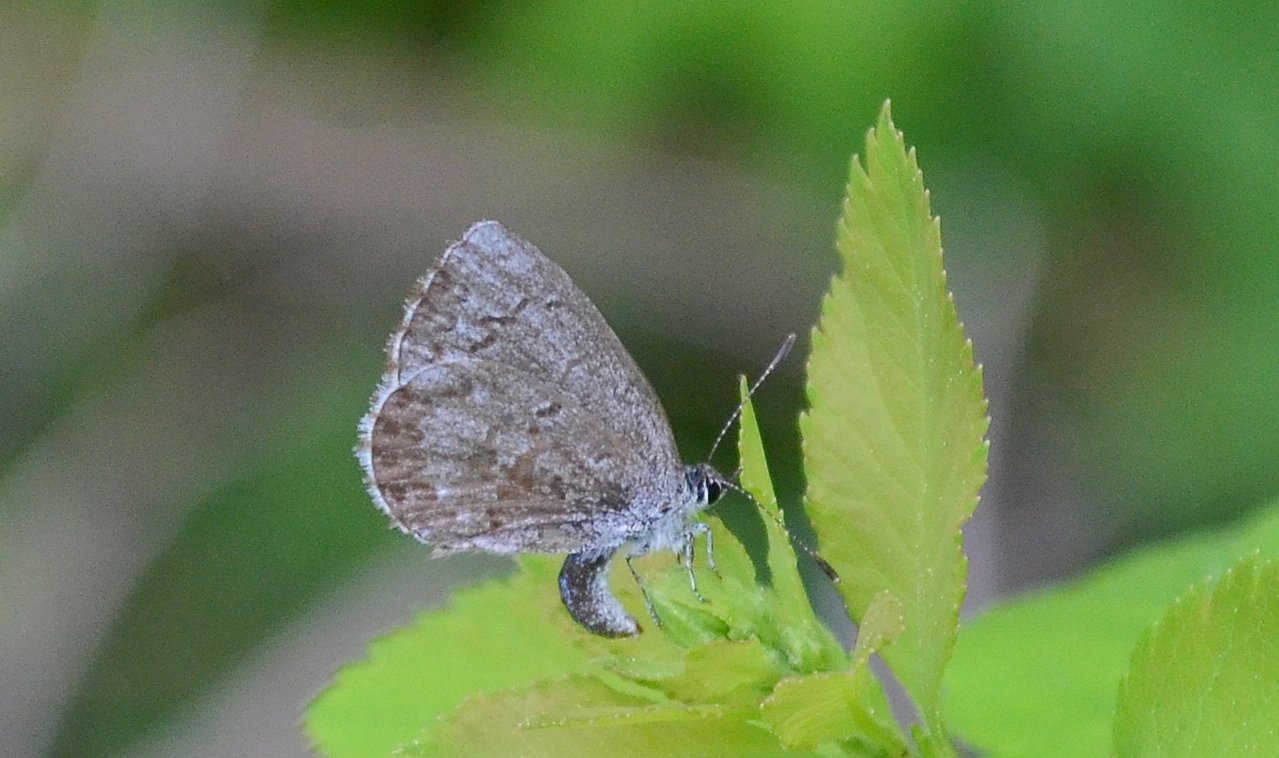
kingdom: Animalia
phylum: Arthropoda
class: Insecta
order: Lepidoptera
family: Lycaenidae
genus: Celastrina
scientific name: Celastrina lucia
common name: Northern Spring Azure
